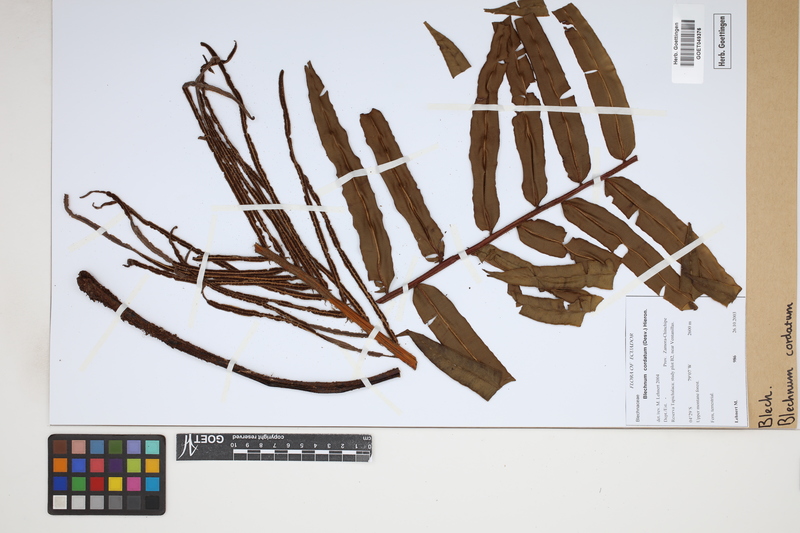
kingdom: Plantae
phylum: Tracheophyta
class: Polypodiopsida
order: Polypodiales
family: Blechnaceae
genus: Parablechnum
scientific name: Parablechnum cordatum
